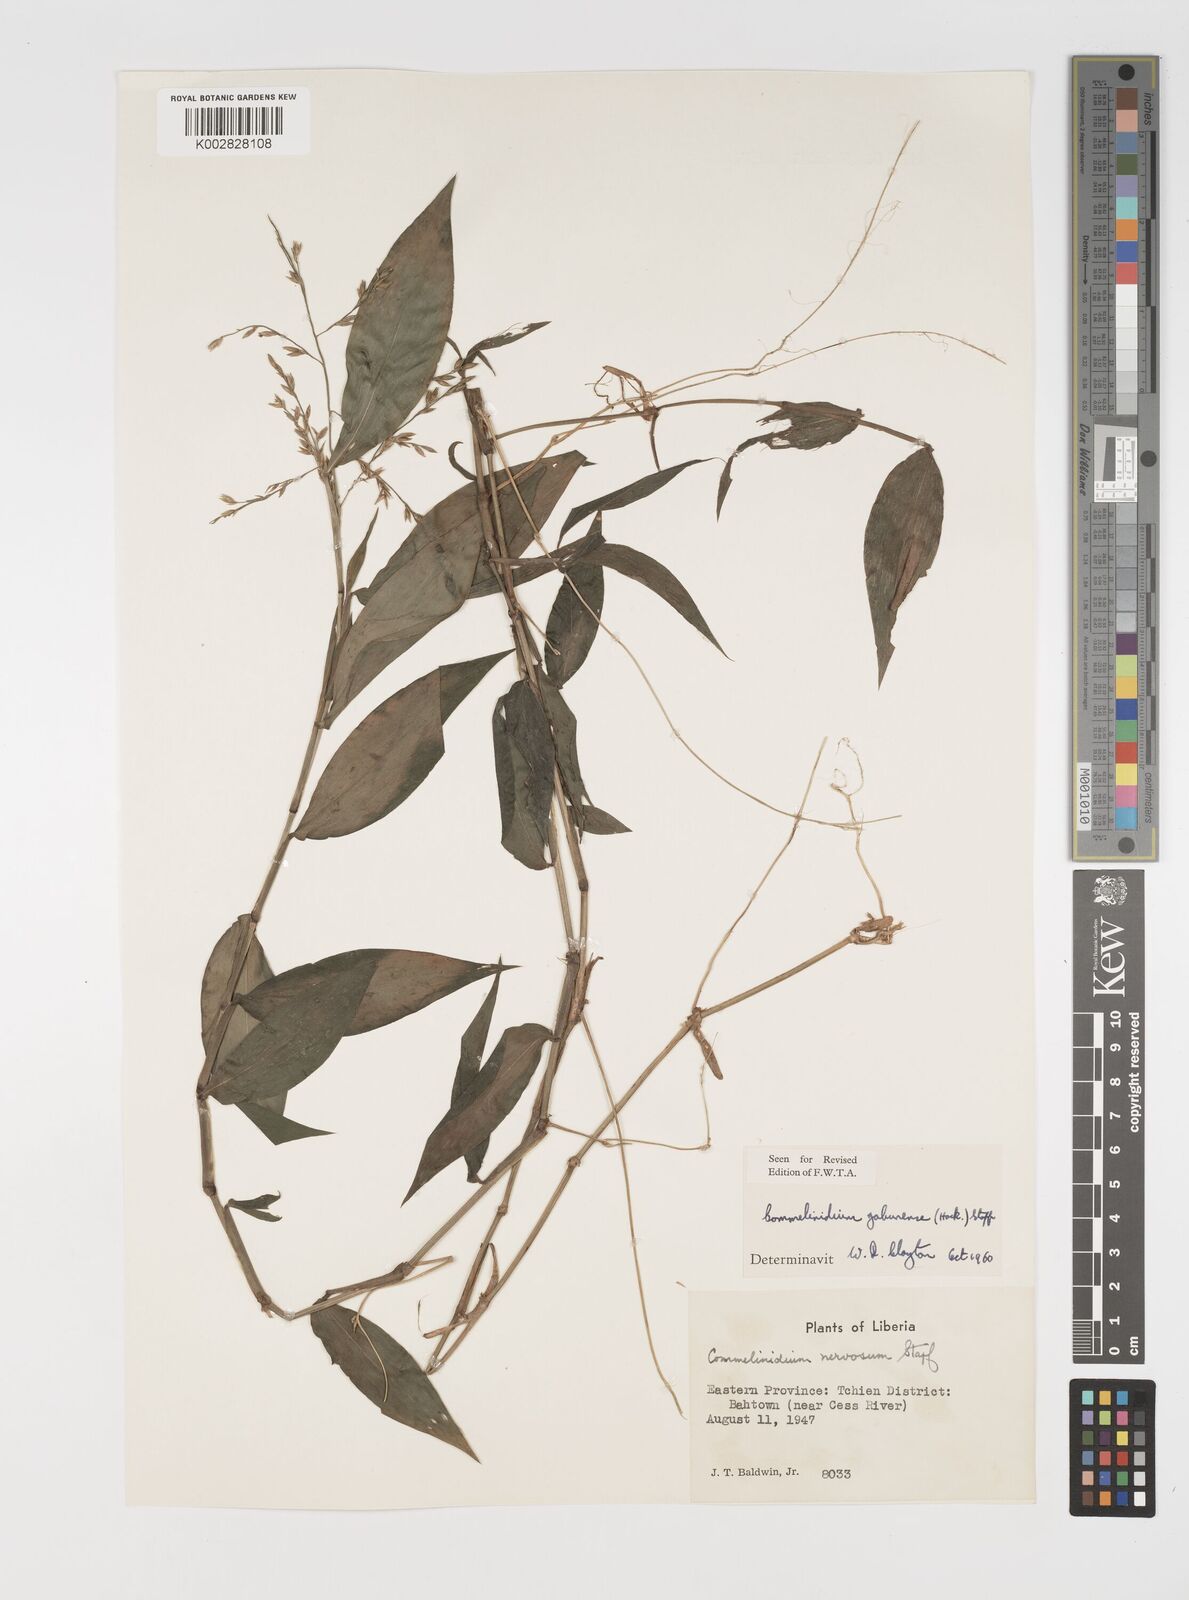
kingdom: Plantae
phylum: Tracheophyta
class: Liliopsida
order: Poales
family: Poaceae
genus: Acroceras
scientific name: Acroceras gabunense
